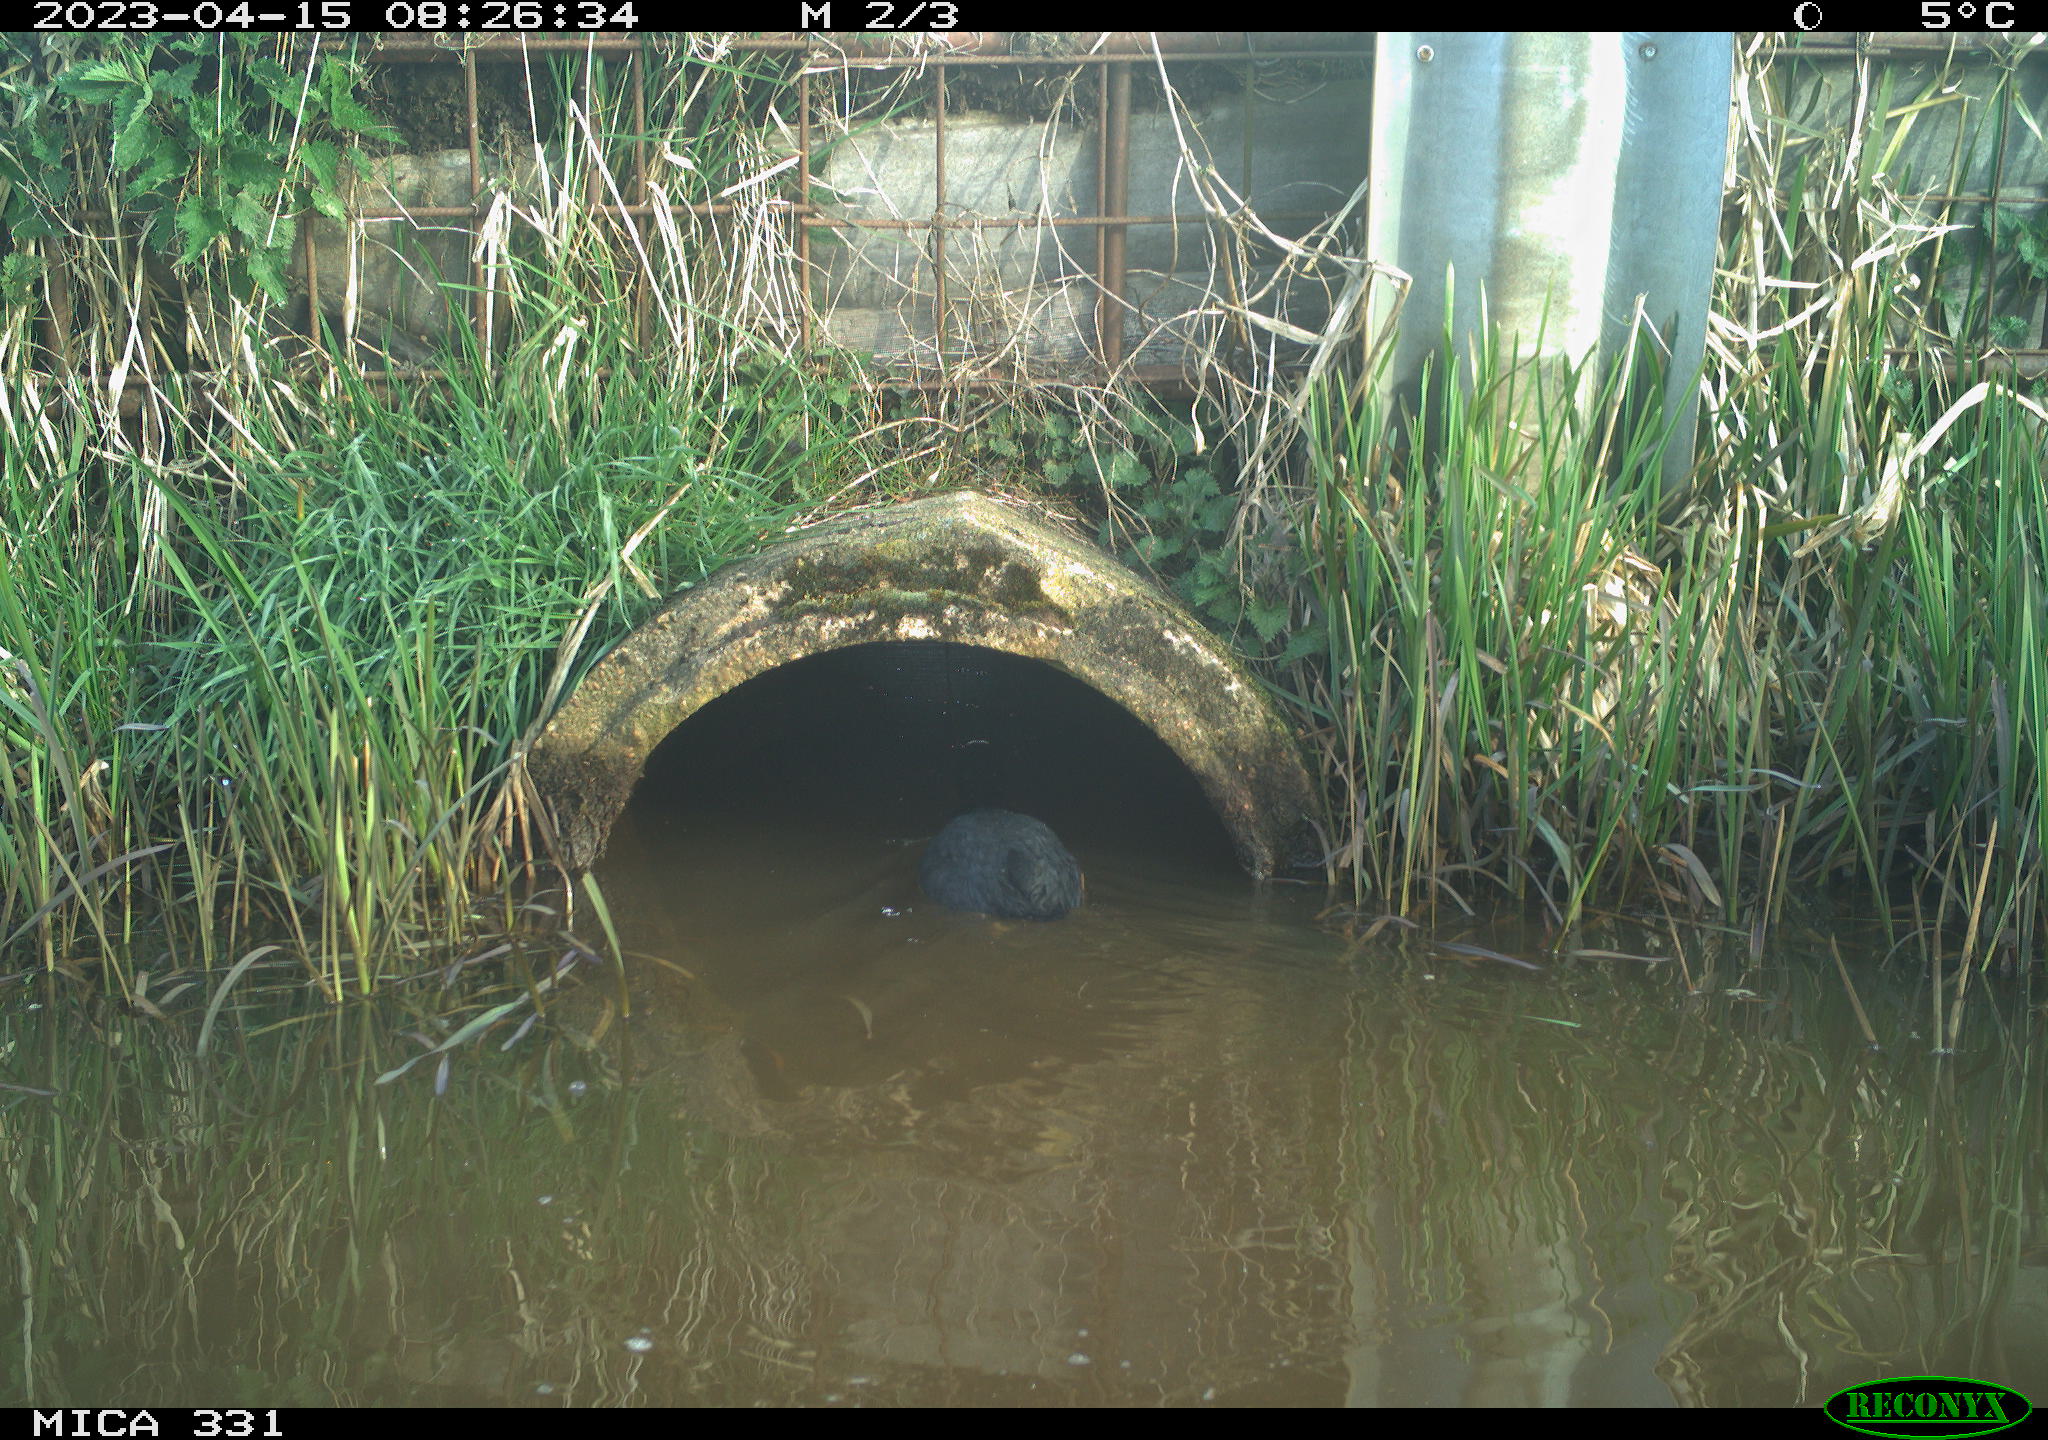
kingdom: Animalia
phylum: Chordata
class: Aves
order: Gruiformes
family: Rallidae
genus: Fulica
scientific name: Fulica atra
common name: Eurasian coot
